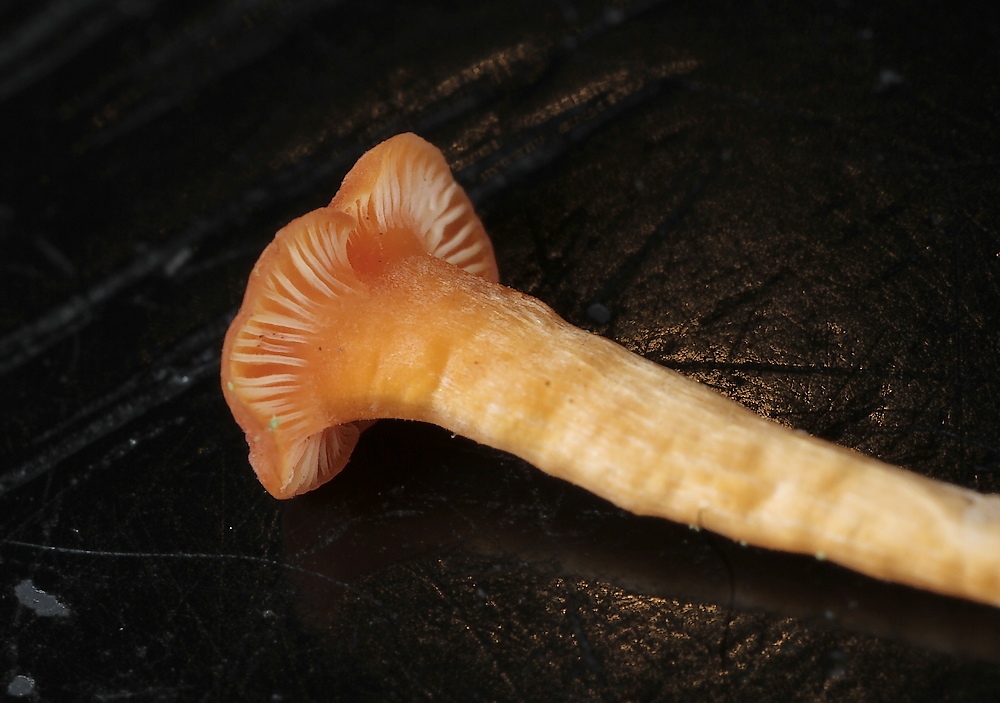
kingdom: Fungi
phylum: Basidiomycota
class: Agaricomycetes
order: Hymenochaetales
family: Rickenellaceae
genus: Rickenella
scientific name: Rickenella fibula
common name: orange mosnavlehat
